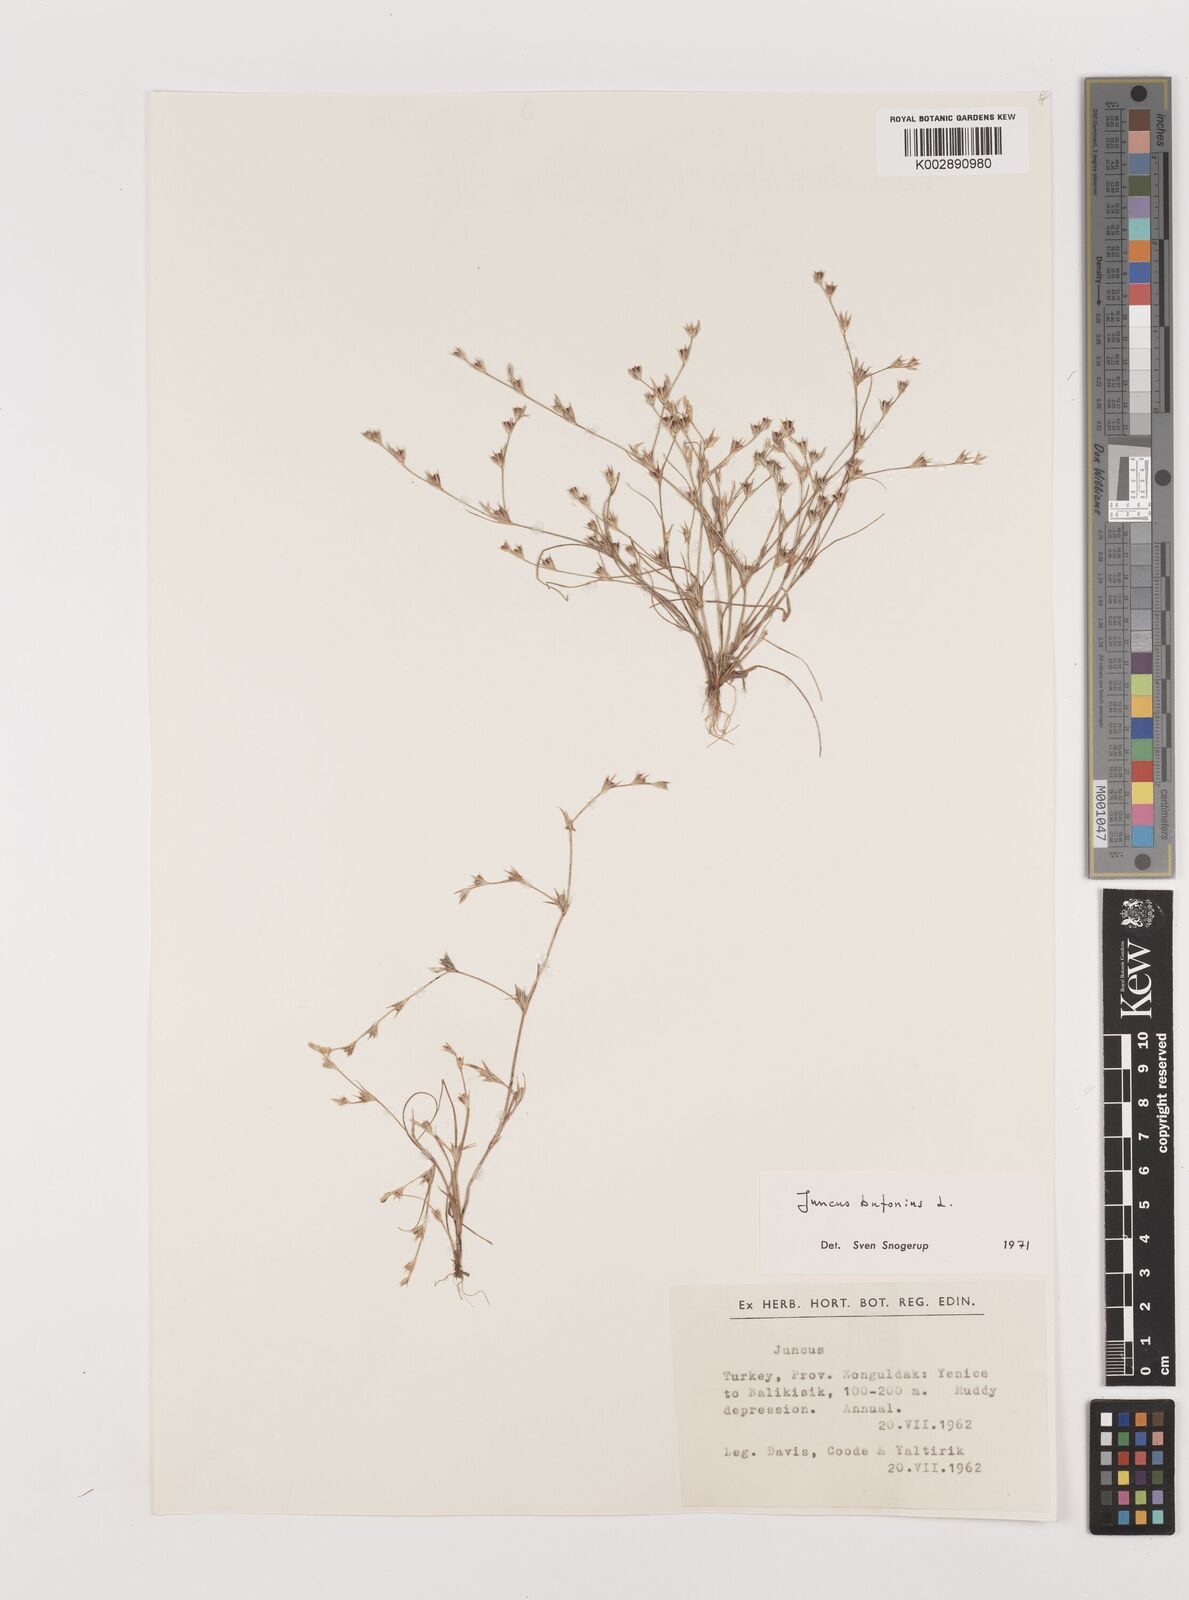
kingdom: Plantae
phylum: Tracheophyta
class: Liliopsida
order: Poales
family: Juncaceae
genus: Juncus
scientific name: Juncus bufonius
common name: Toad rush
